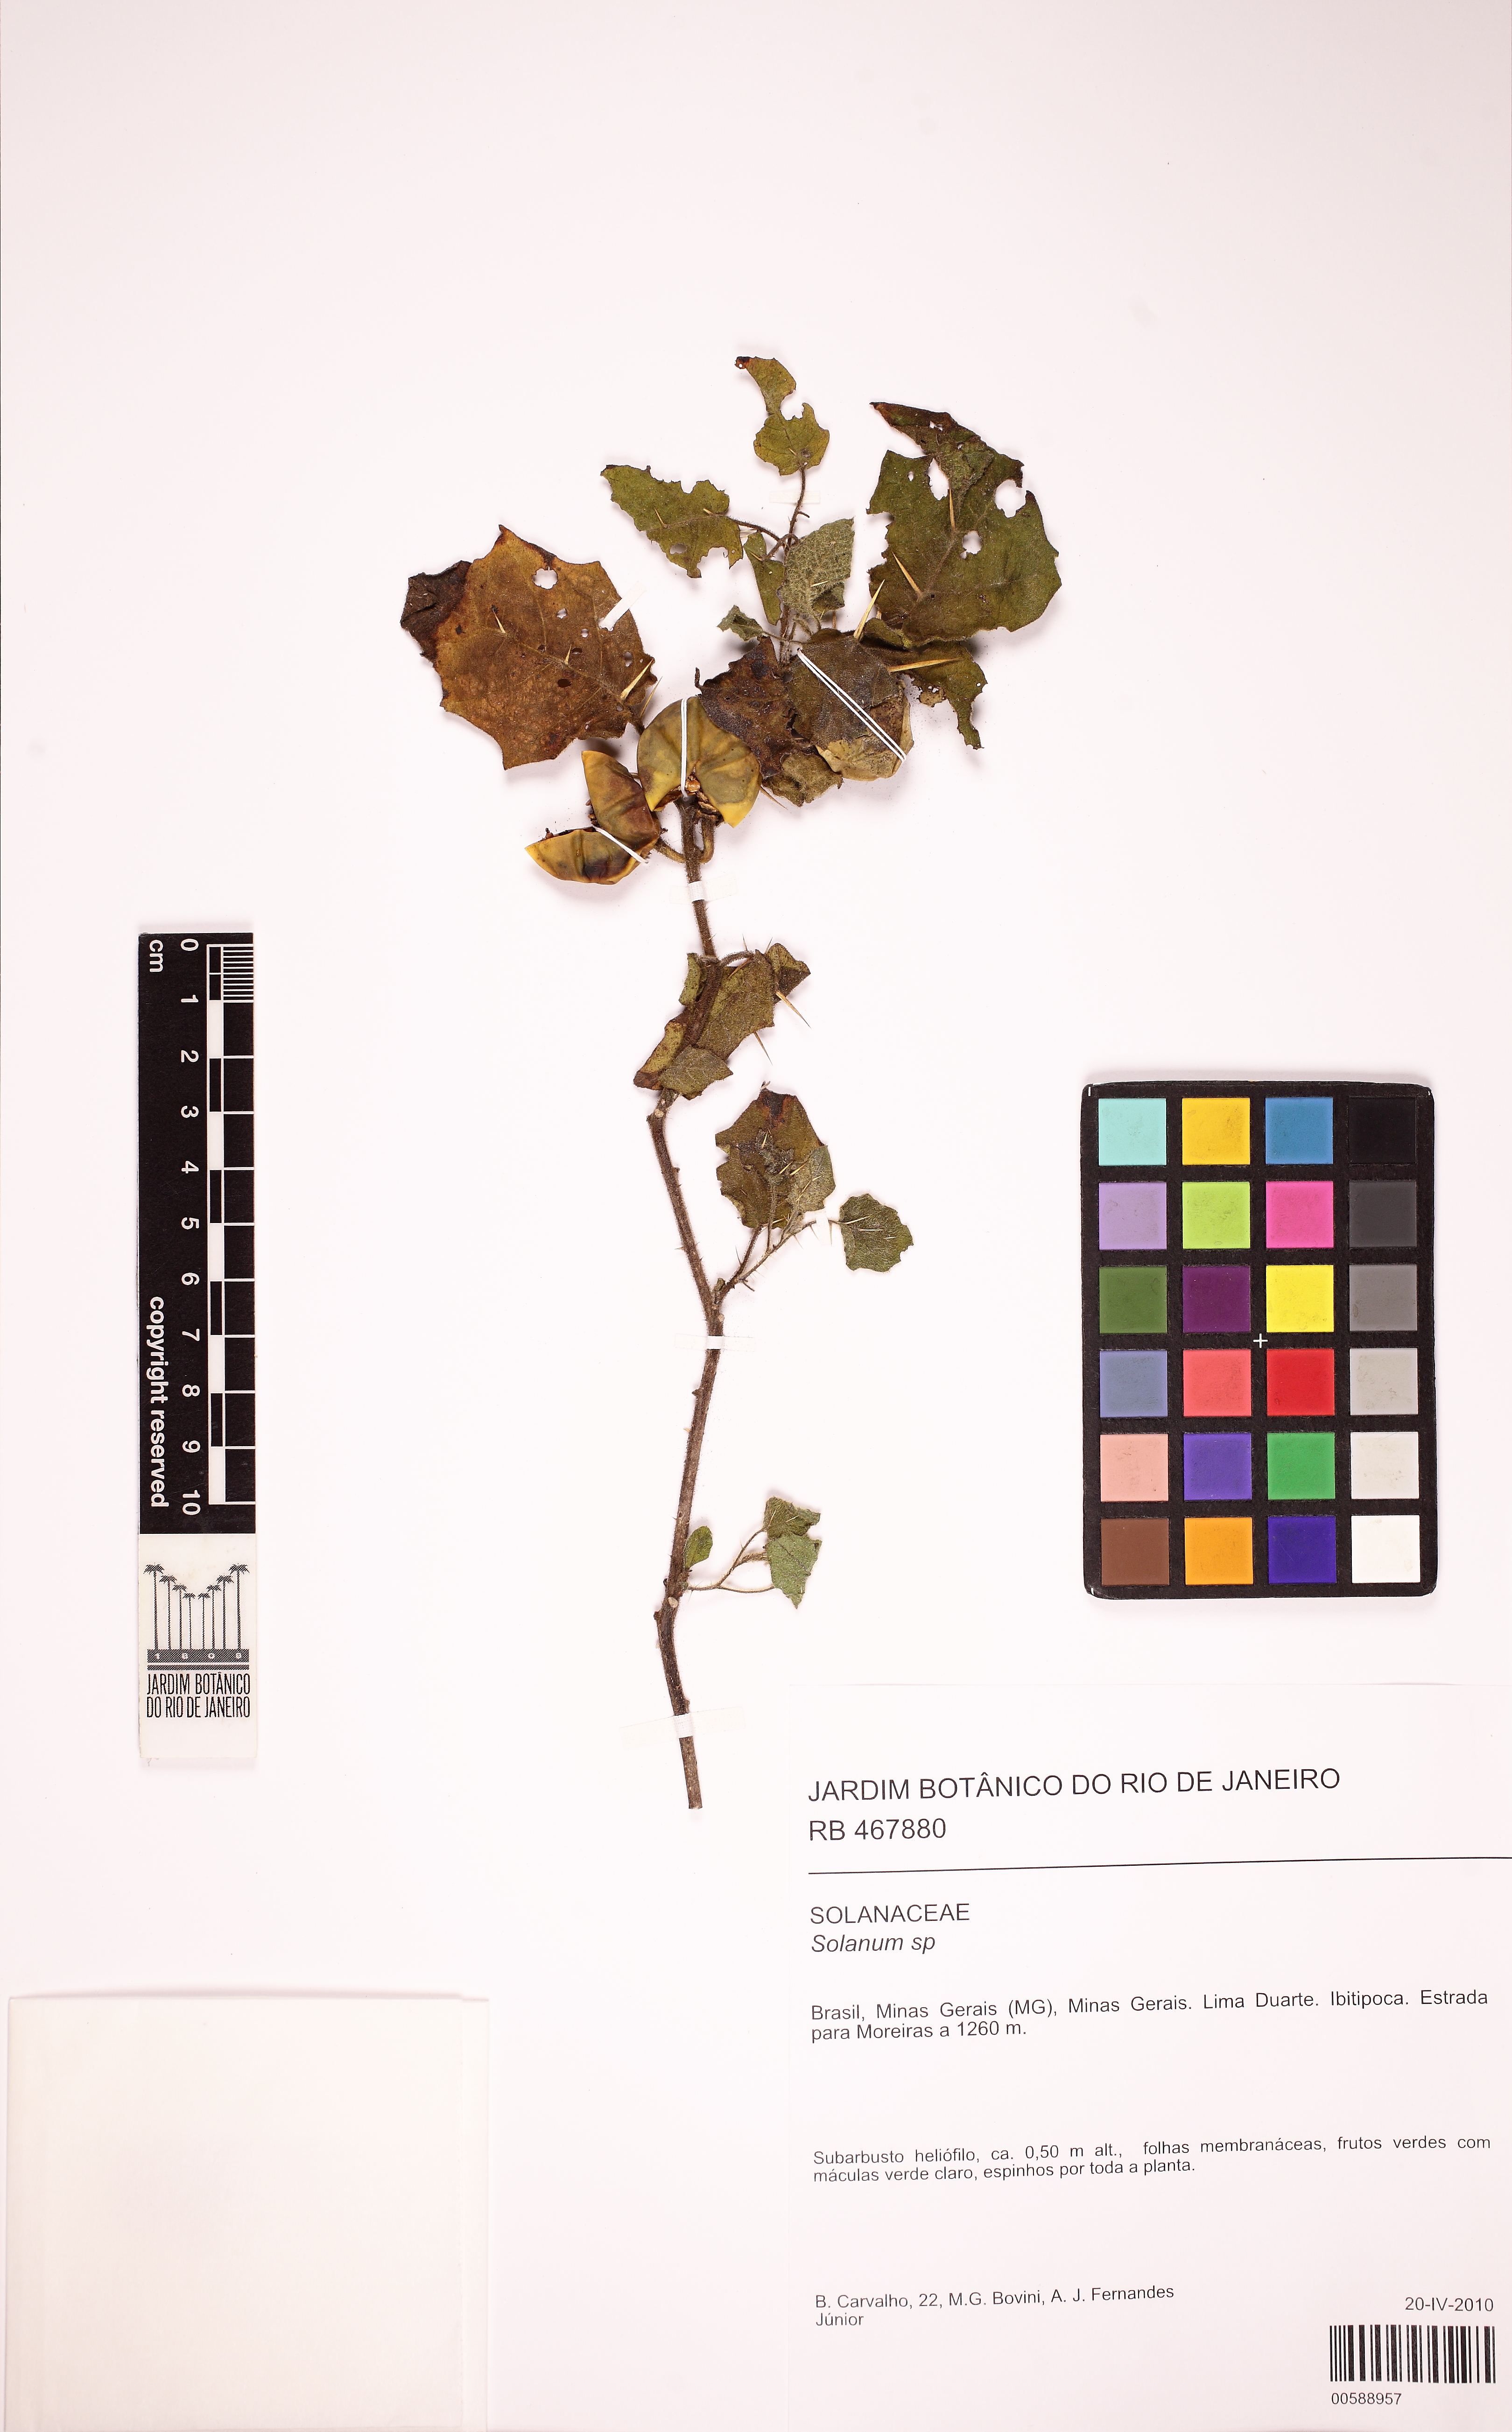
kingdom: Plantae
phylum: Tracheophyta
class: Magnoliopsida
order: Solanales
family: Solanaceae
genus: Solanum
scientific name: Solanum paniculatum
